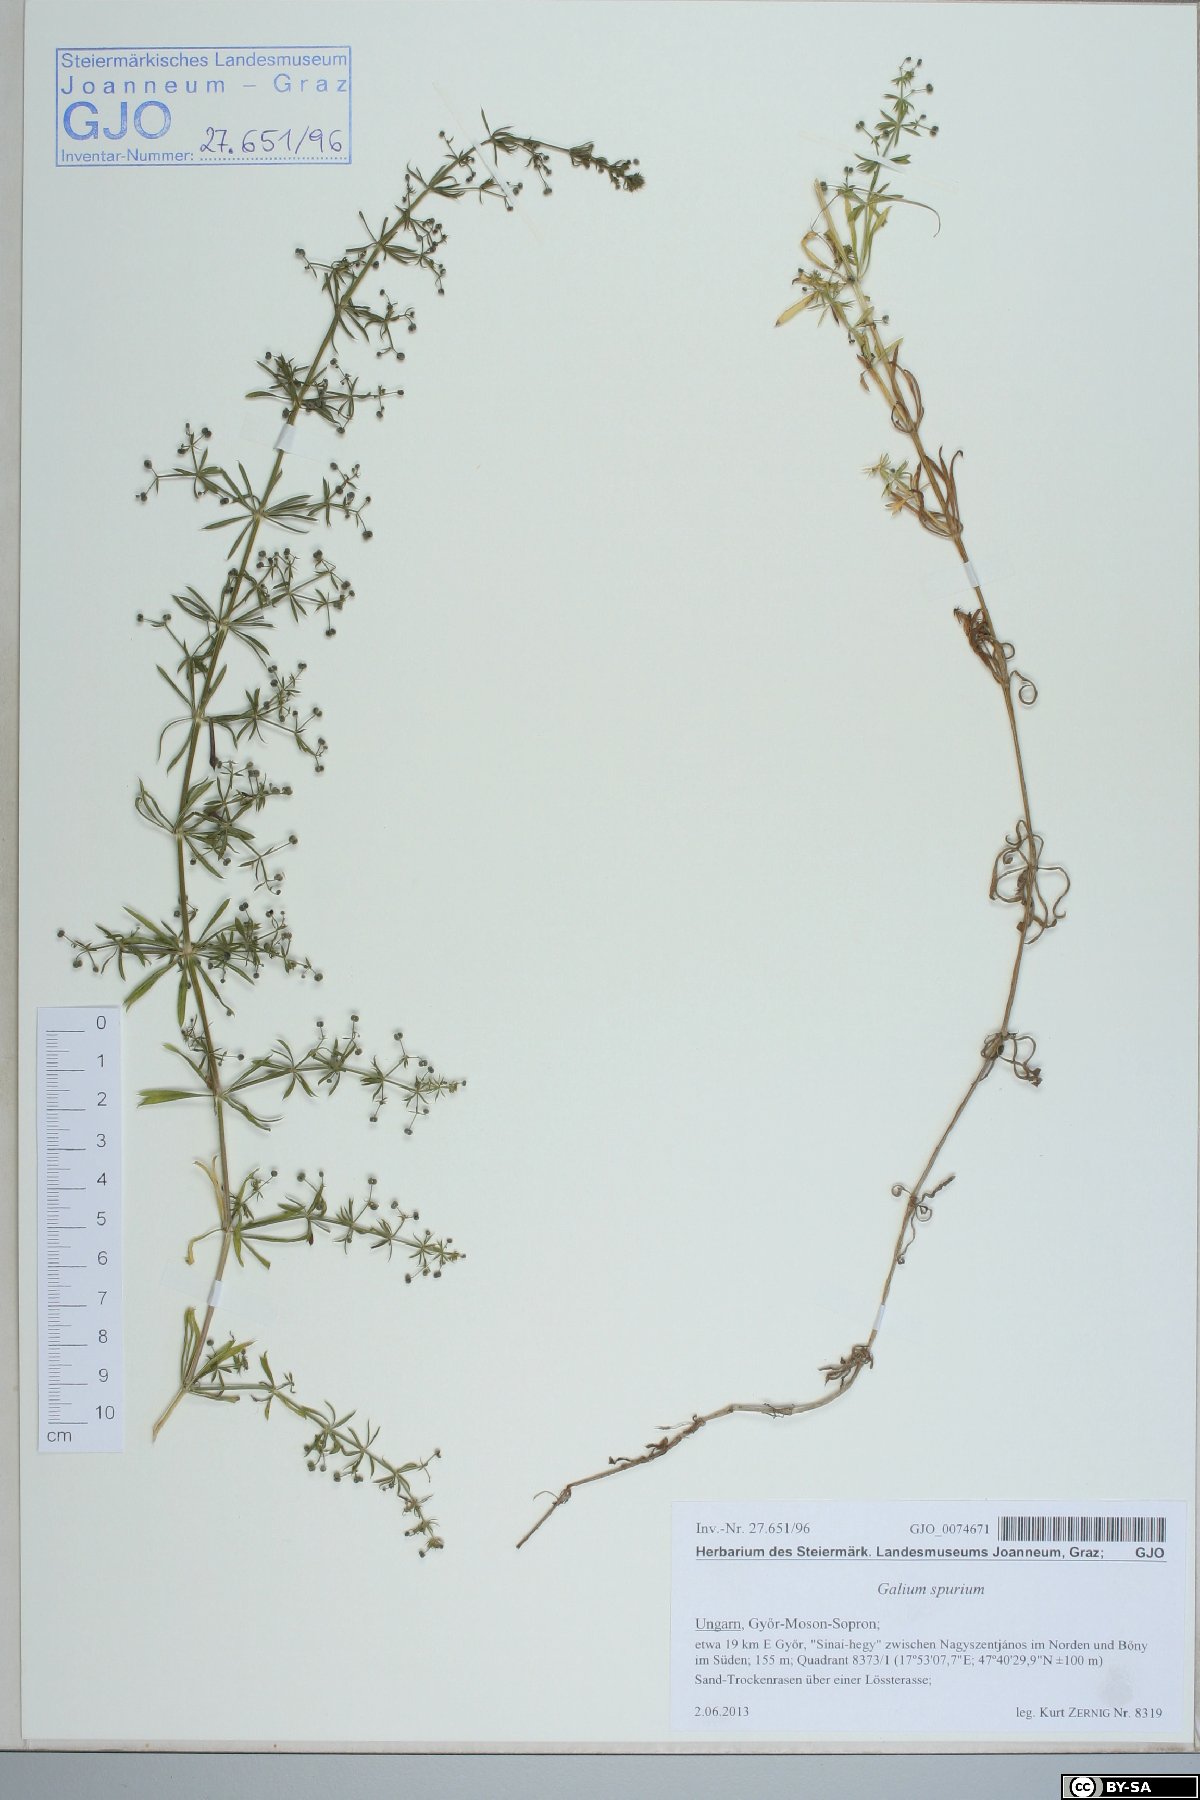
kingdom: Plantae
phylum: Tracheophyta
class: Magnoliopsida
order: Gentianales
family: Rubiaceae
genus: Galium
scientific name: Galium spurium
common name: False cleavers
